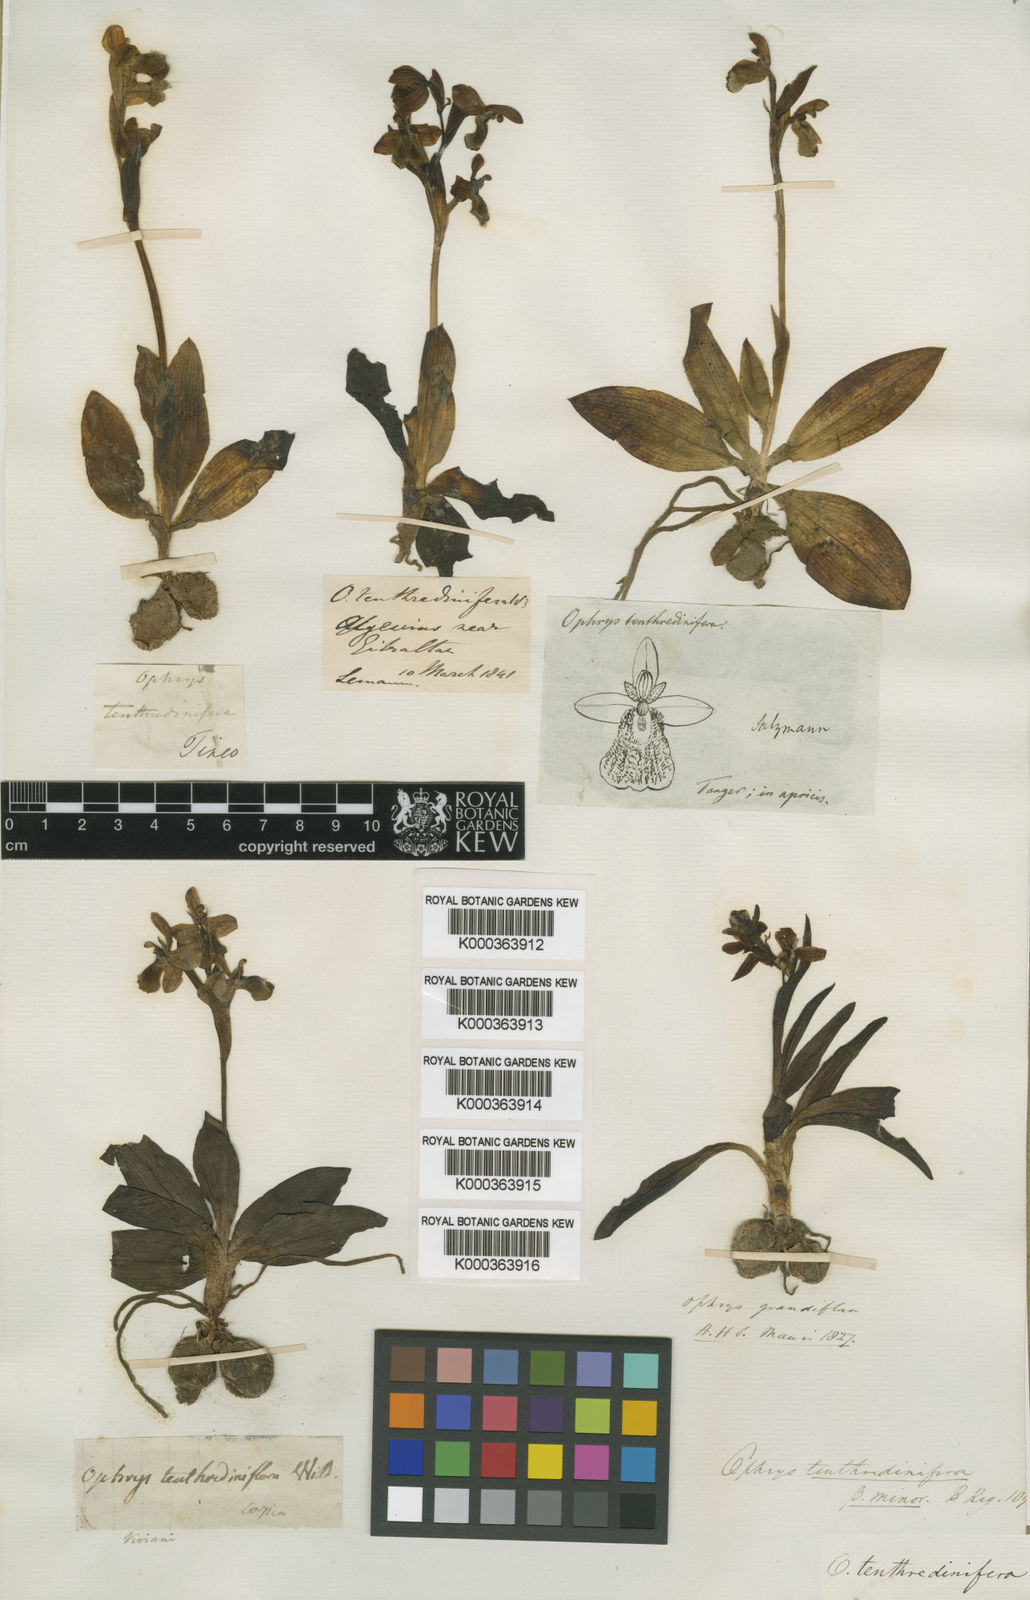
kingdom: Plantae
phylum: Tracheophyta
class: Liliopsida
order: Asparagales
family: Orchidaceae
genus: Ophrys
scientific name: Ophrys tenthredinifera
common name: Sawfly orchid
